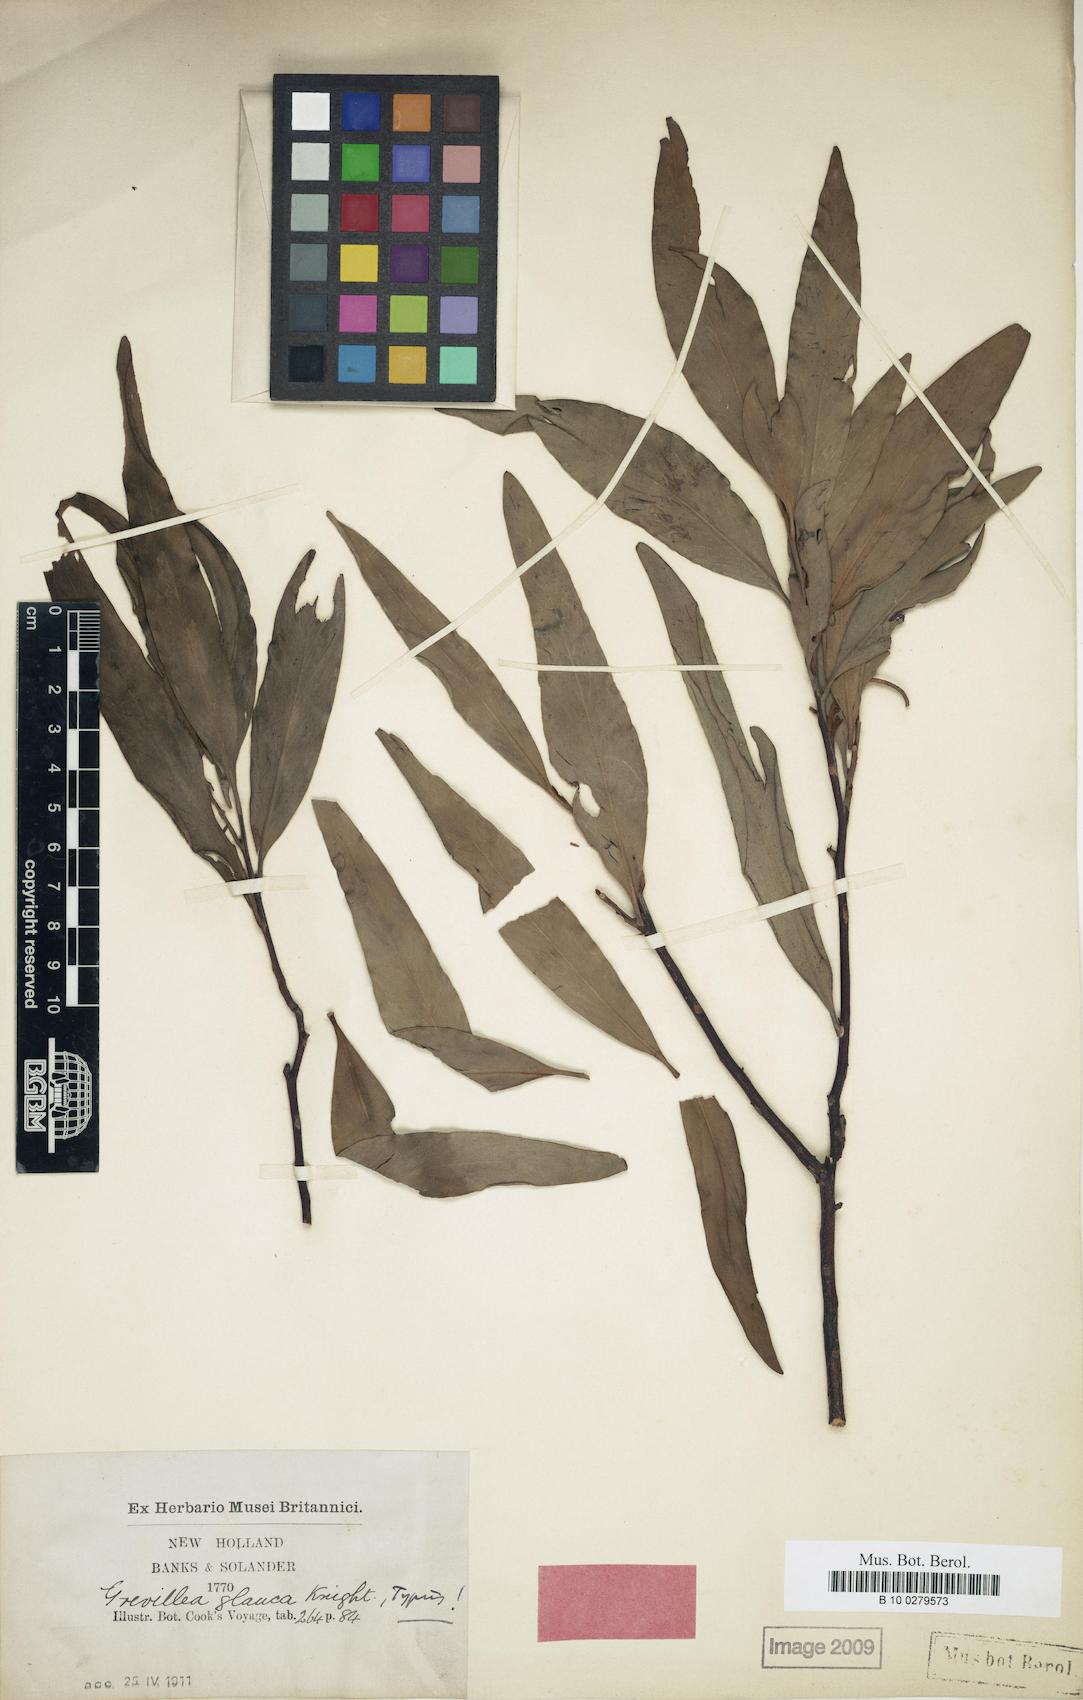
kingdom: Plantae
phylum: Tracheophyta
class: Magnoliopsida
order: Proteales
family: Proteaceae
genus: Grevillea
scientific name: Grevillea glauca
